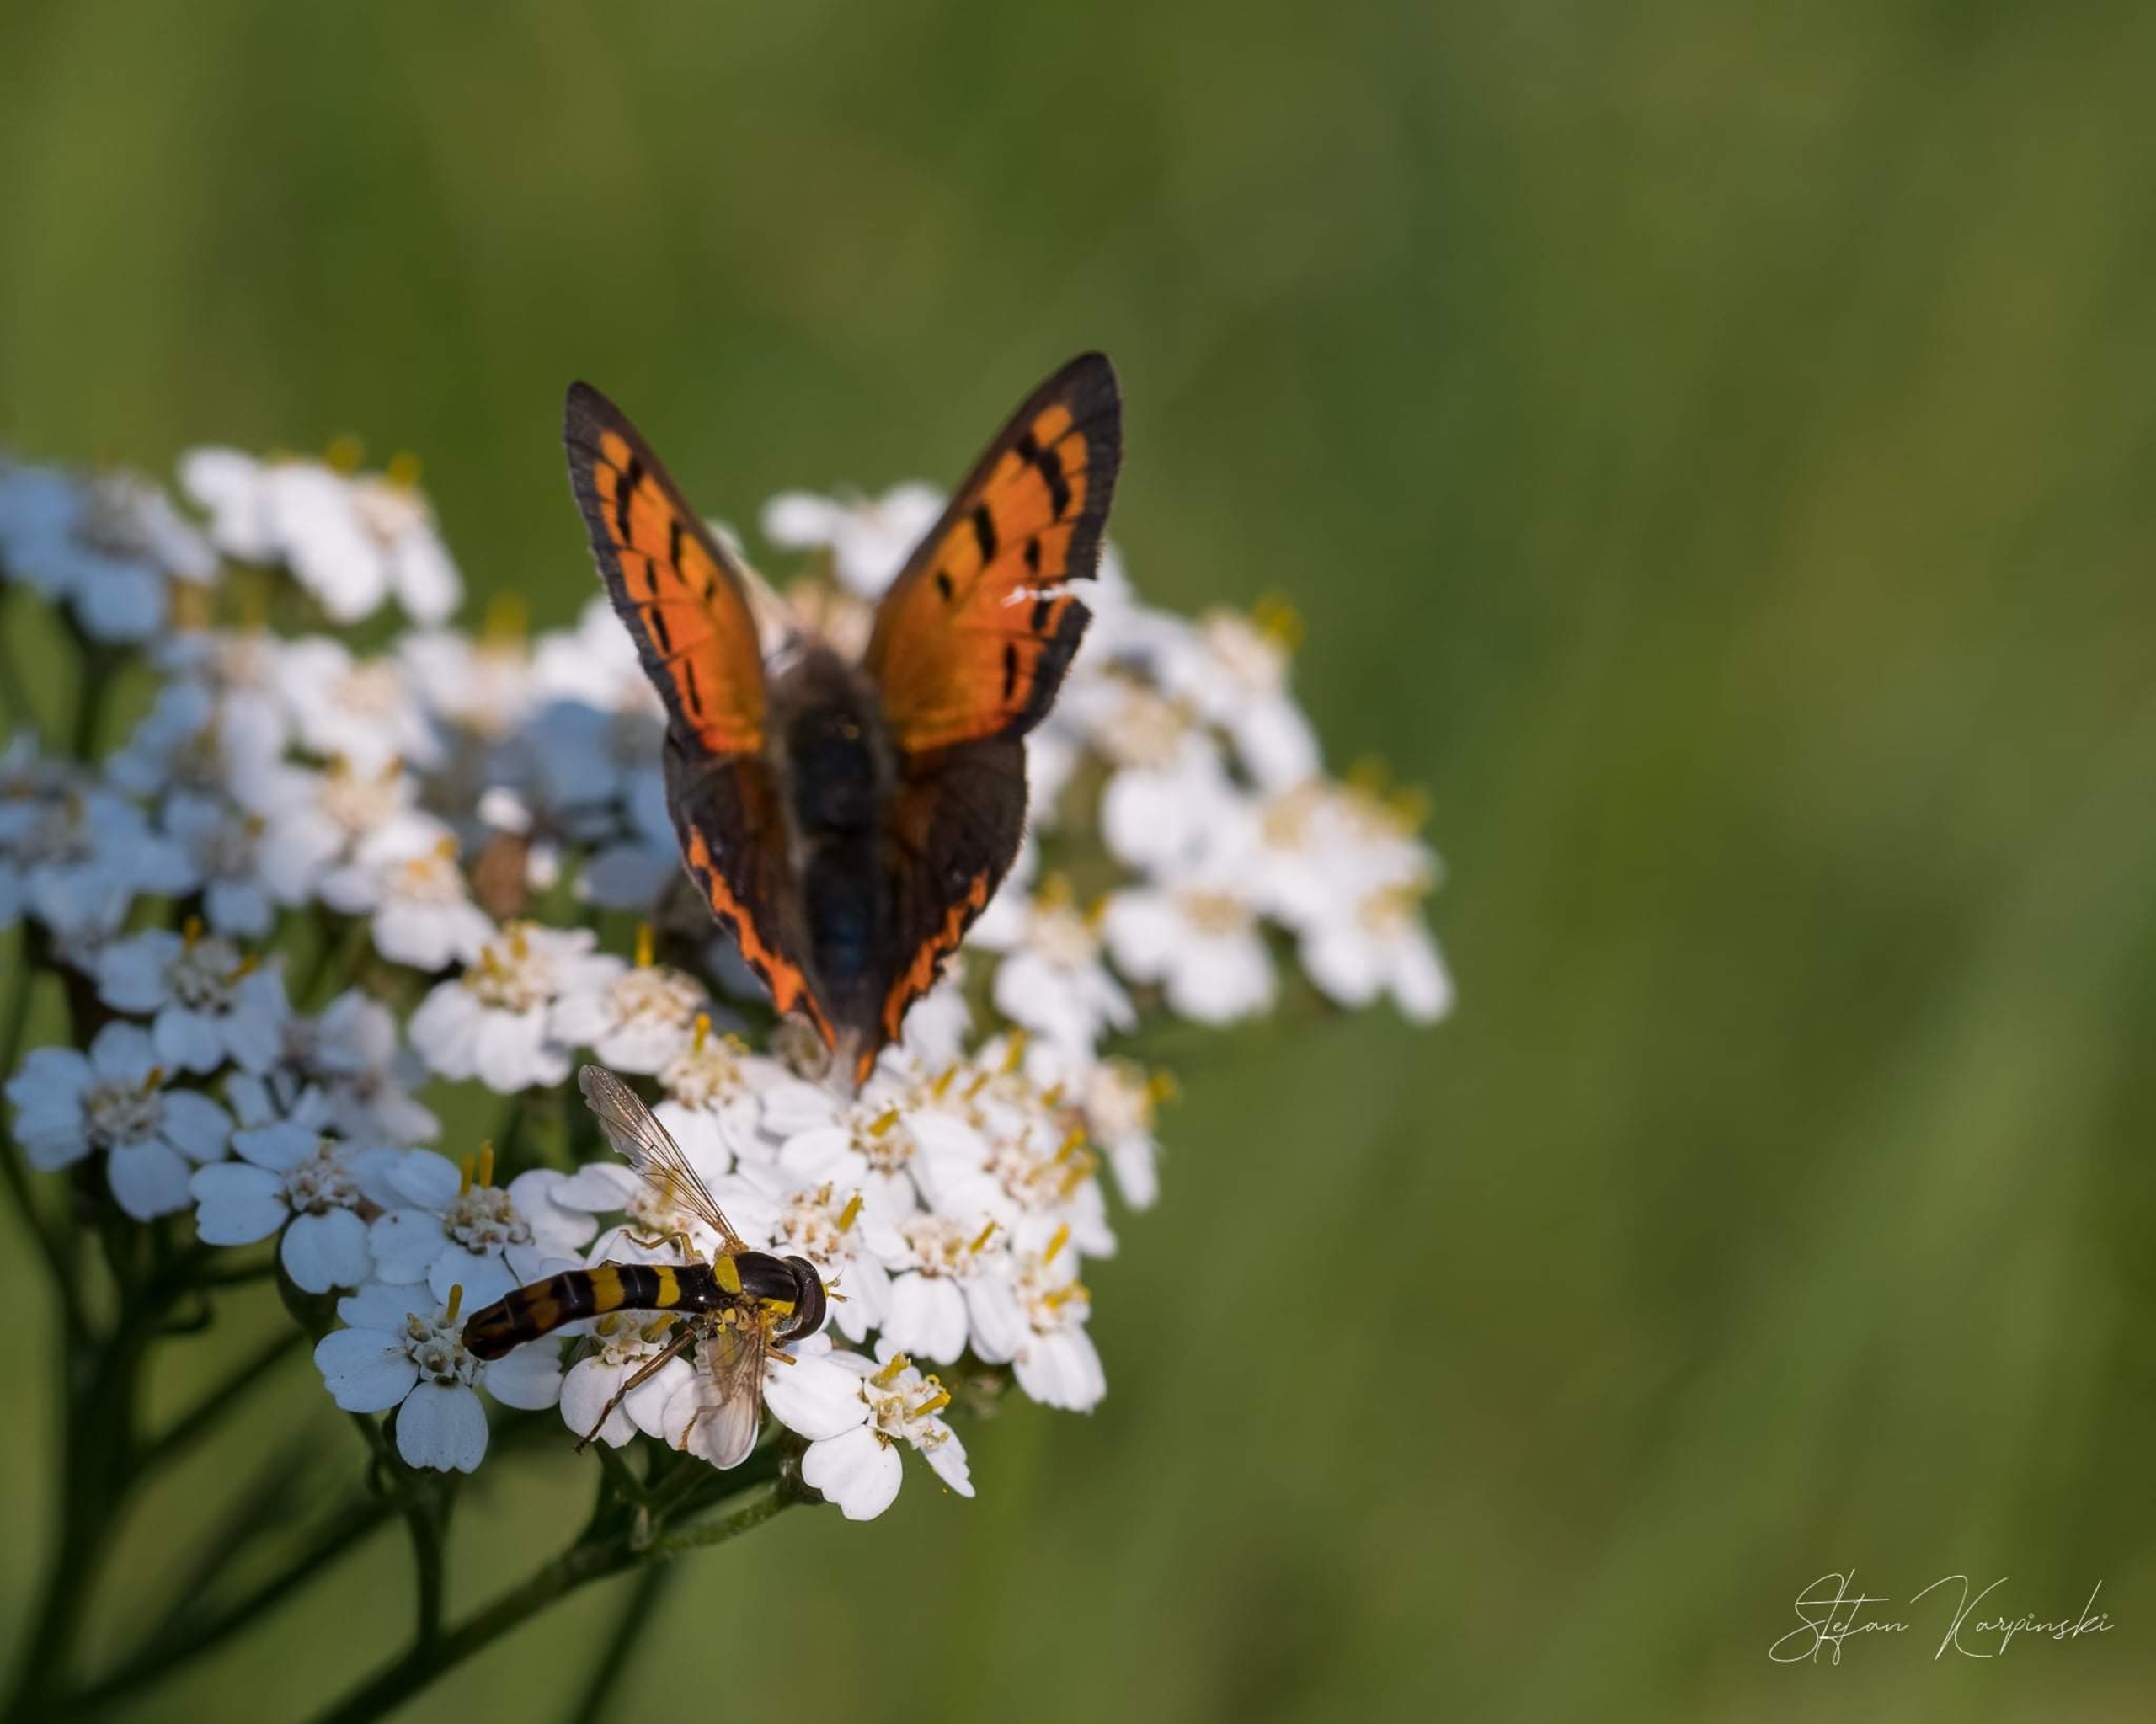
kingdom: Animalia
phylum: Arthropoda
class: Insecta
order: Diptera
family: Syrphidae
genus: Sphaerophoria
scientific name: Sphaerophoria scripta
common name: Almindelig kuglebærerflue
